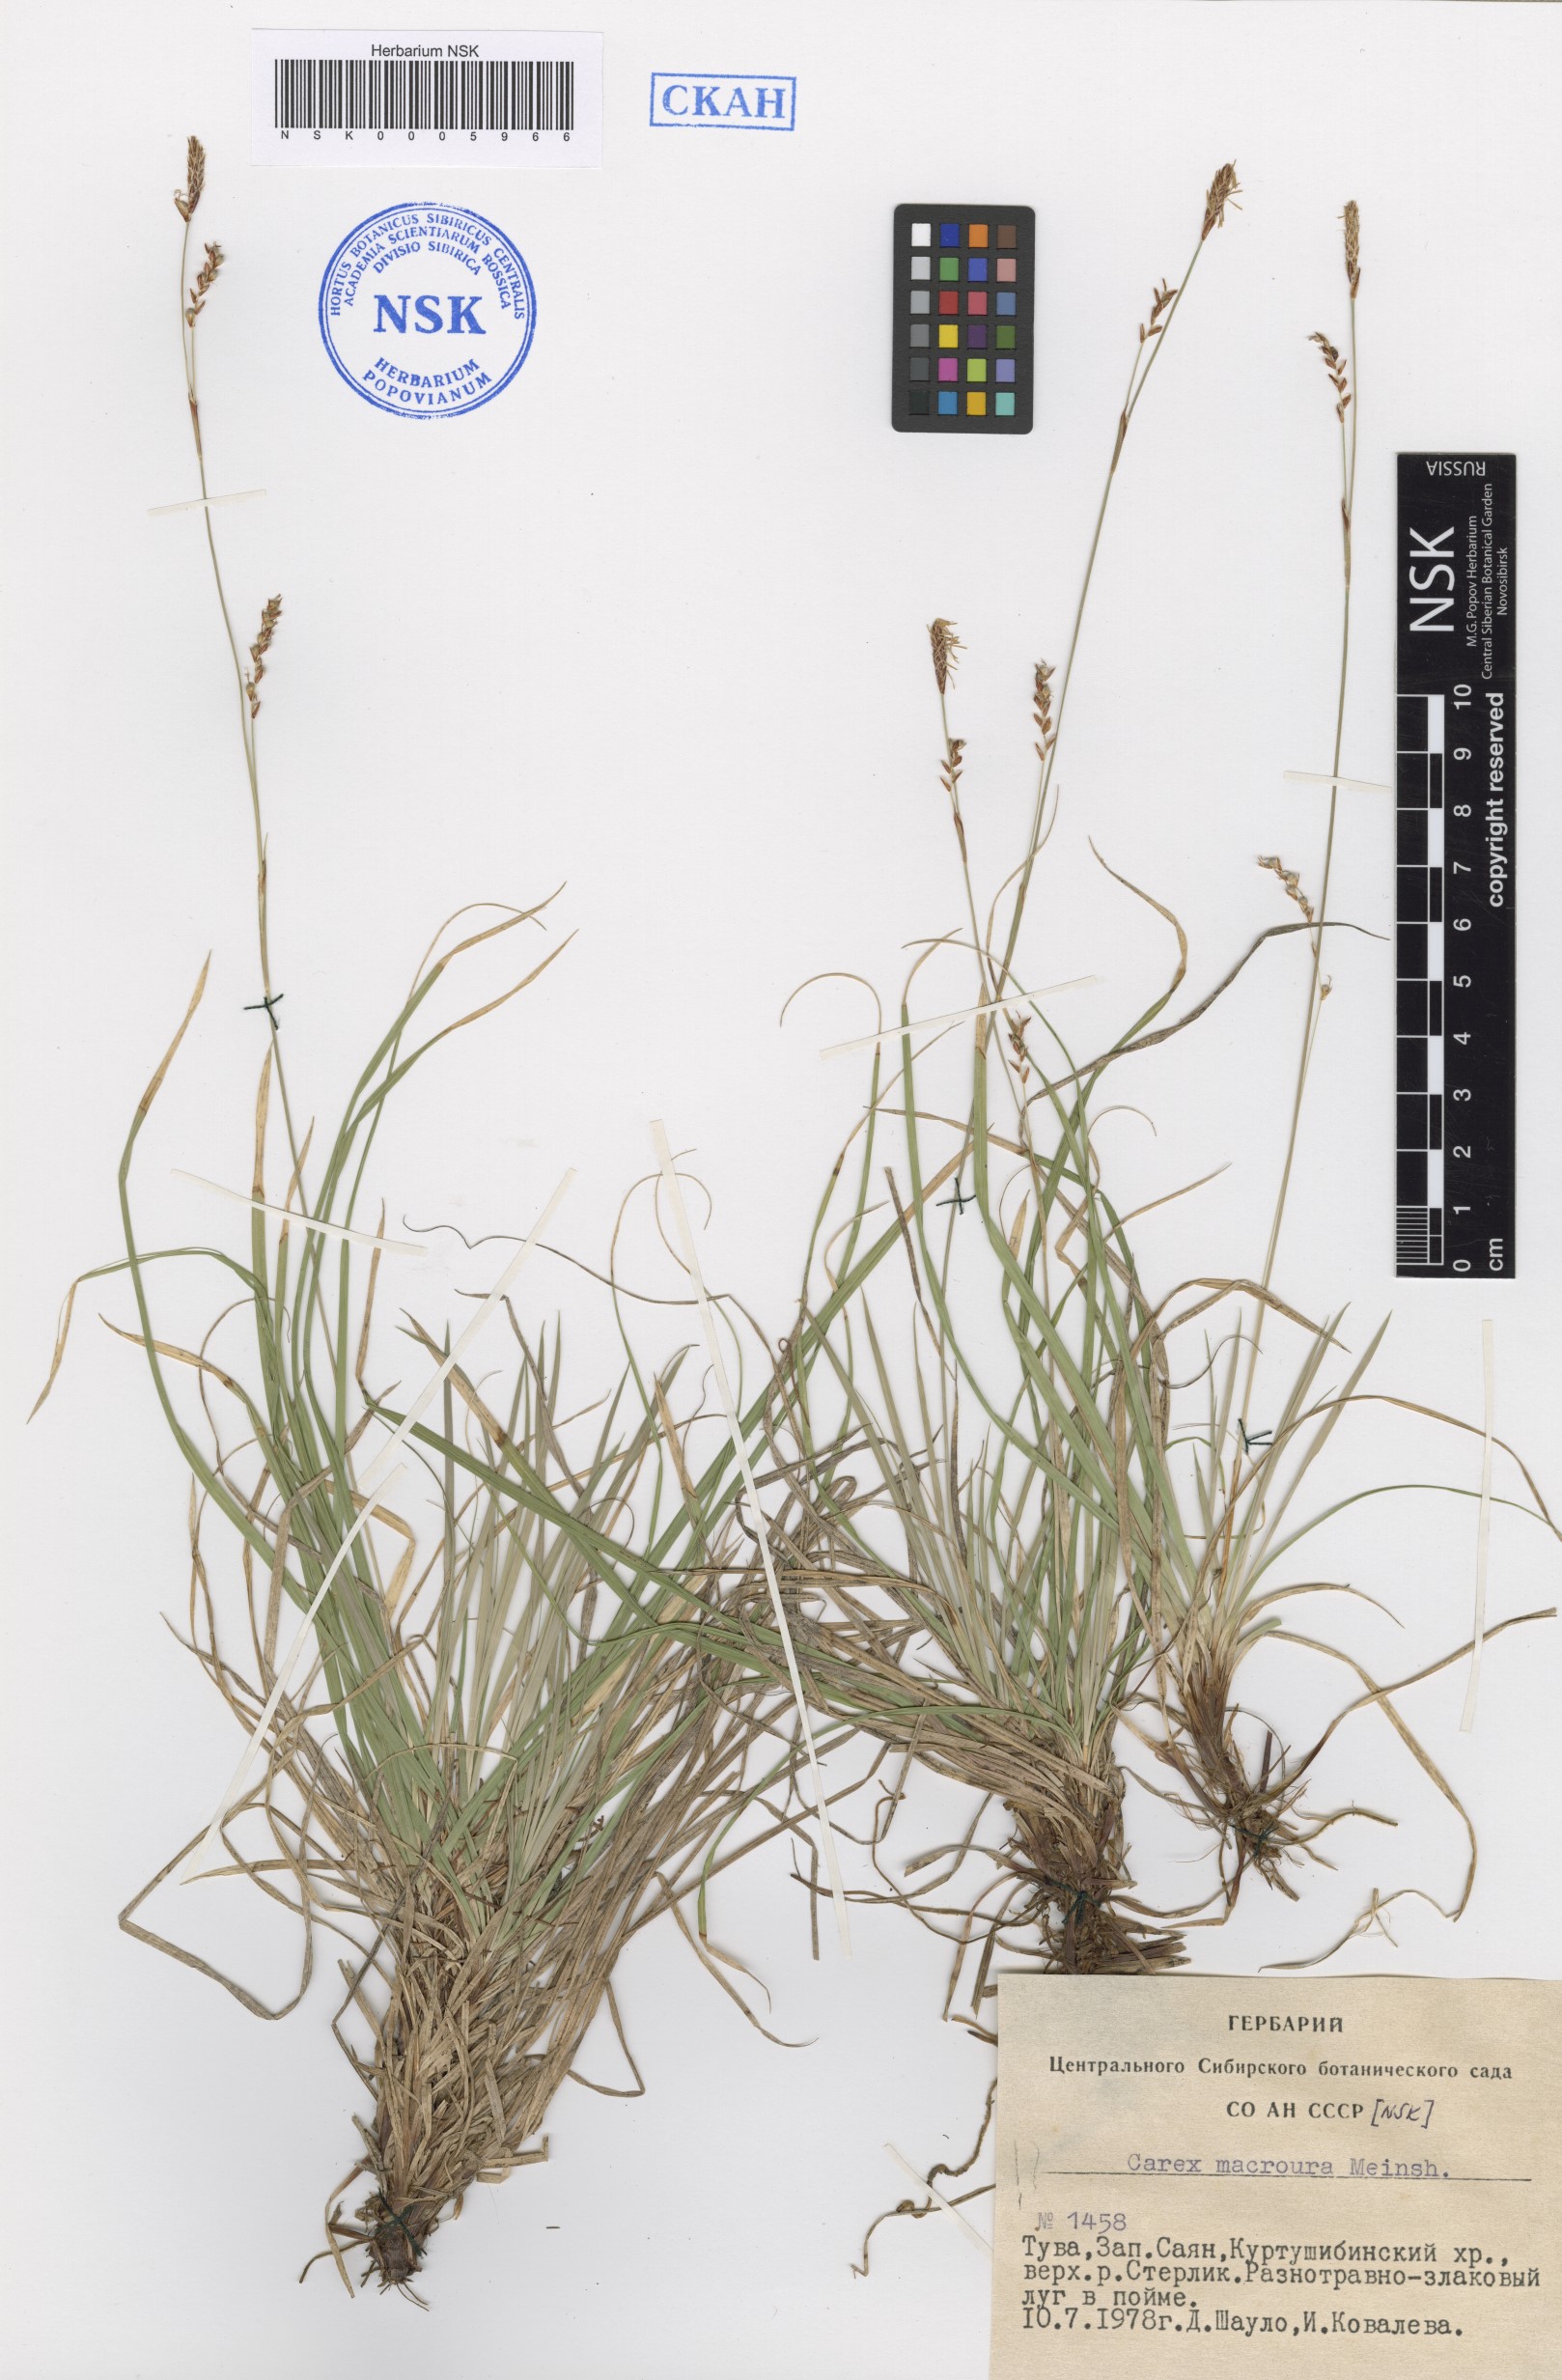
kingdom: Plantae
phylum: Tracheophyta
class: Liliopsida
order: Poales
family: Cyperaceae
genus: Carex
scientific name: Carex pediformis
